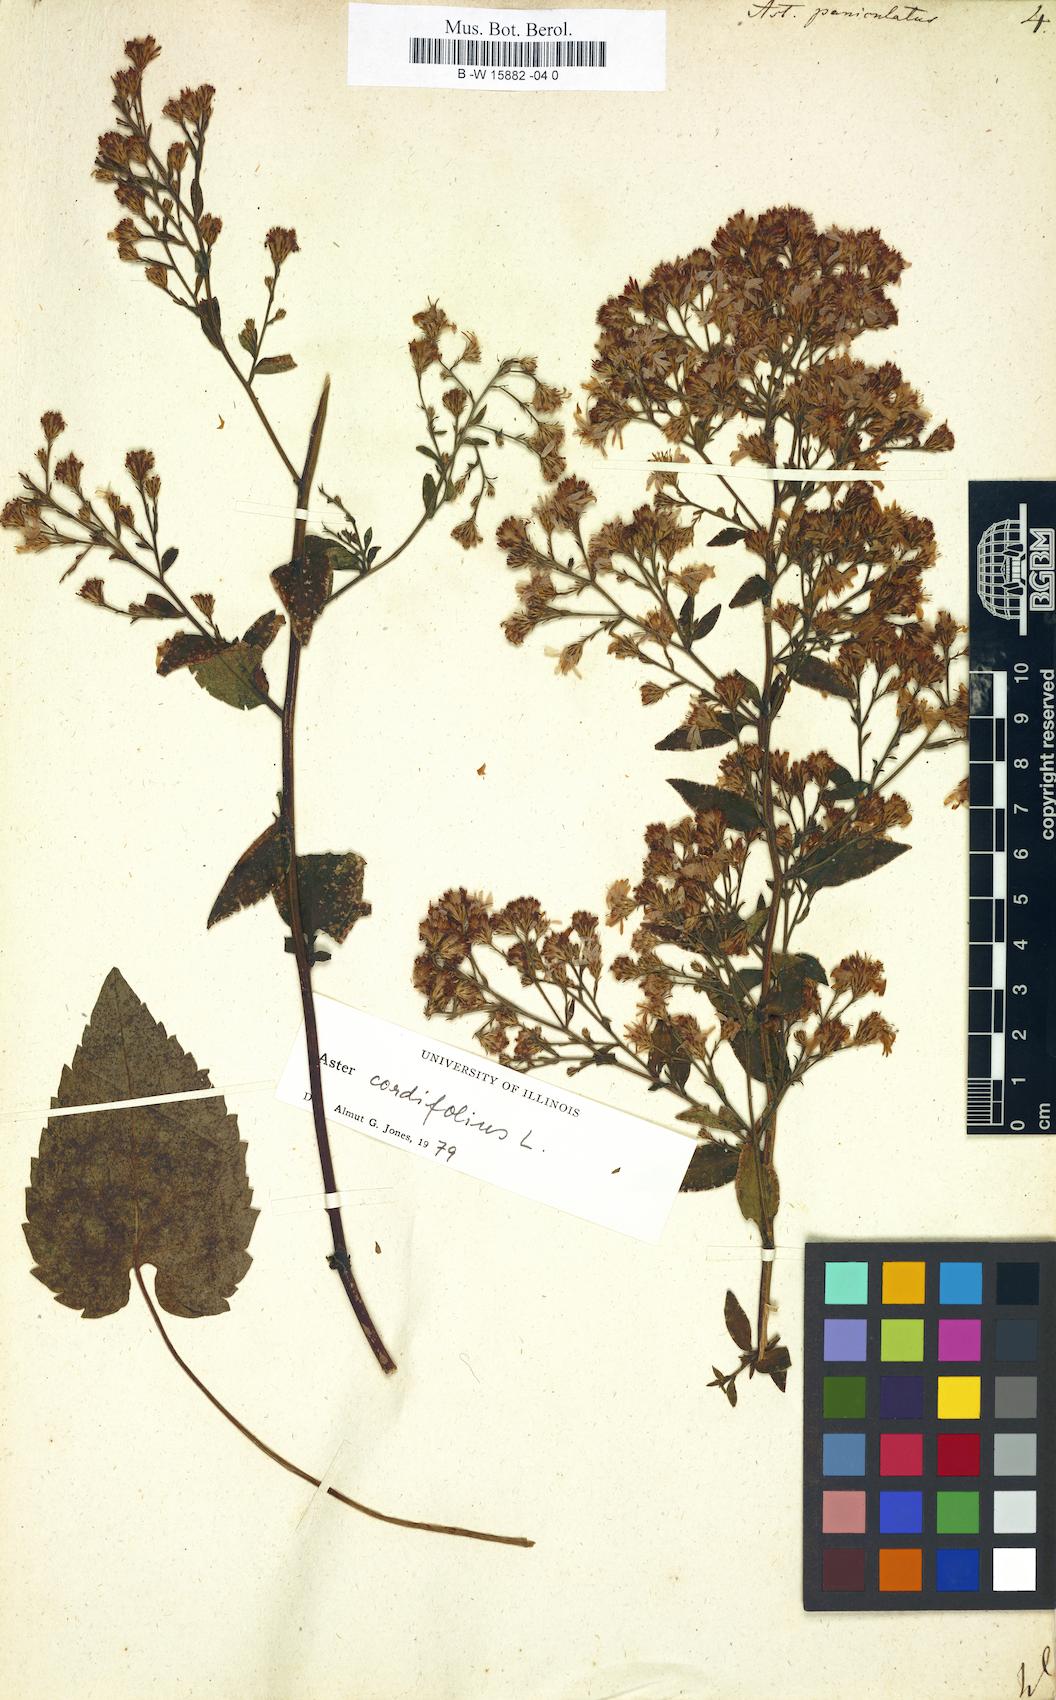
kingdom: Plantae
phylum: Tracheophyta
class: Magnoliopsida
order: Asterales
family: Asteraceae
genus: Symphyotrichum
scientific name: Symphyotrichum lanceolatum
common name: Panicled aster
